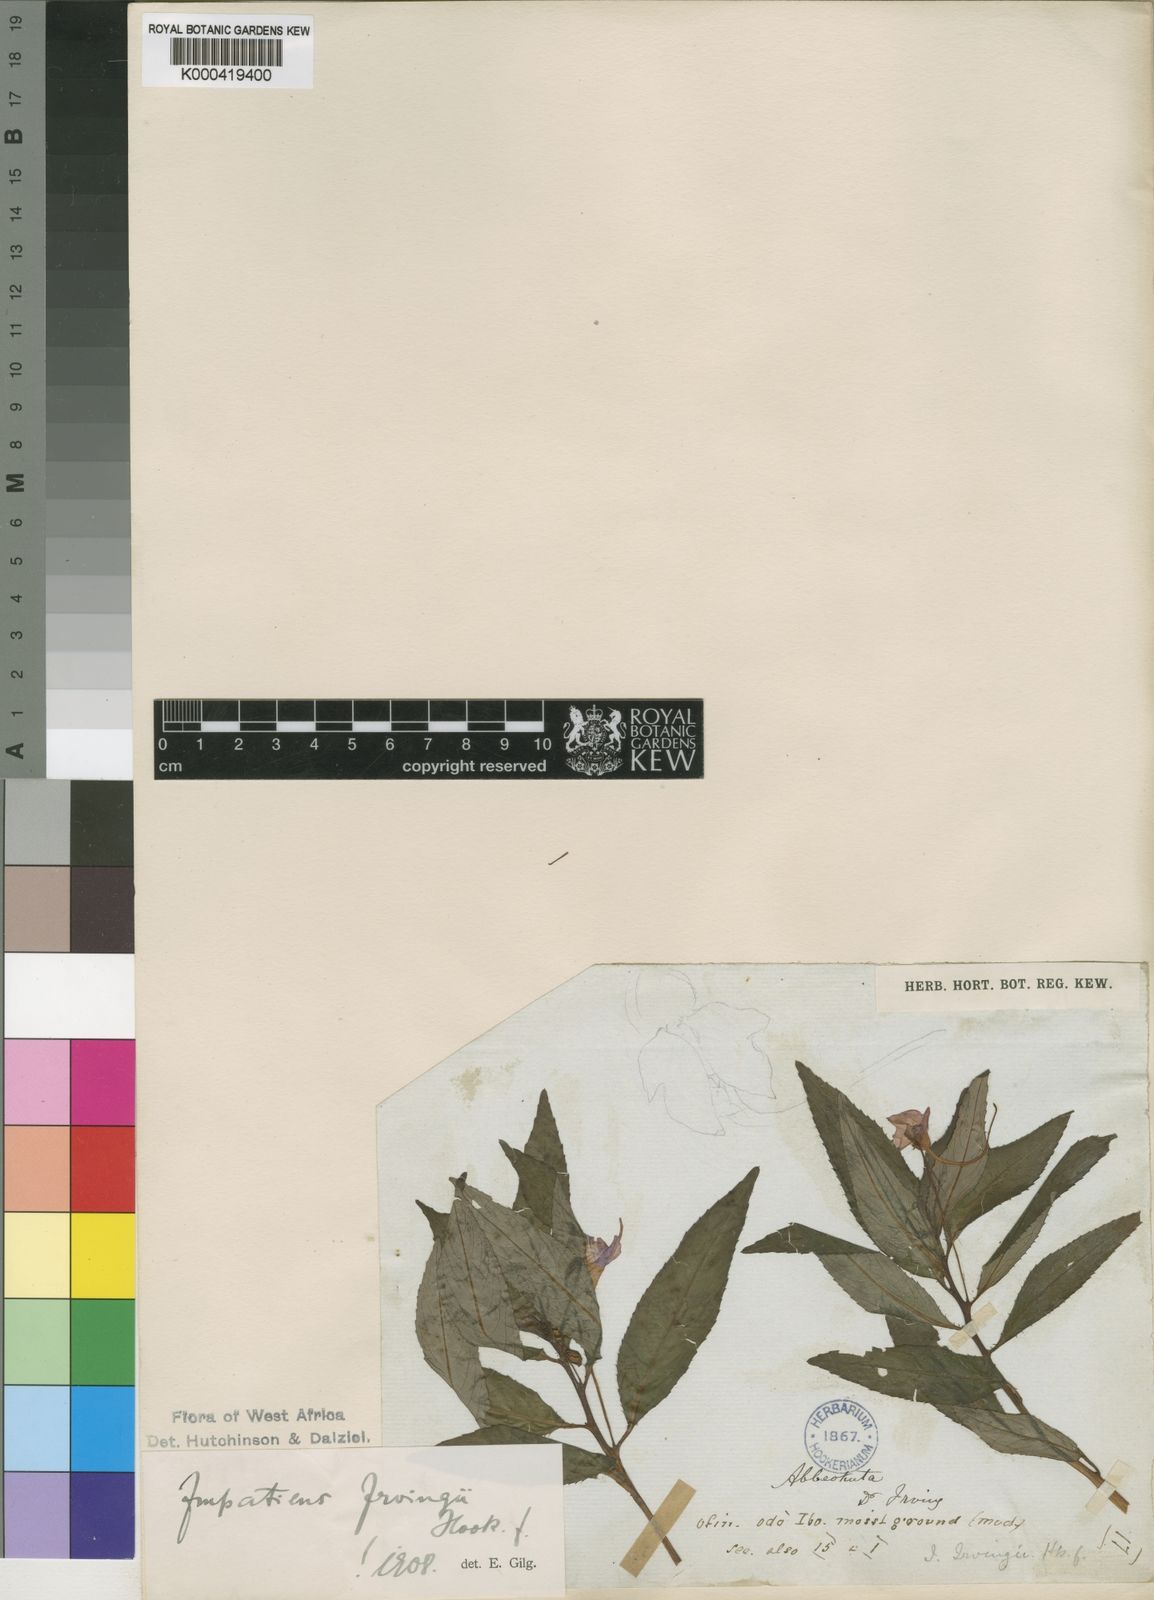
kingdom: Plantae
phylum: Tracheophyta
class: Magnoliopsida
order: Ericales
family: Balsaminaceae
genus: Impatiens
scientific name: Impatiens irvingii
